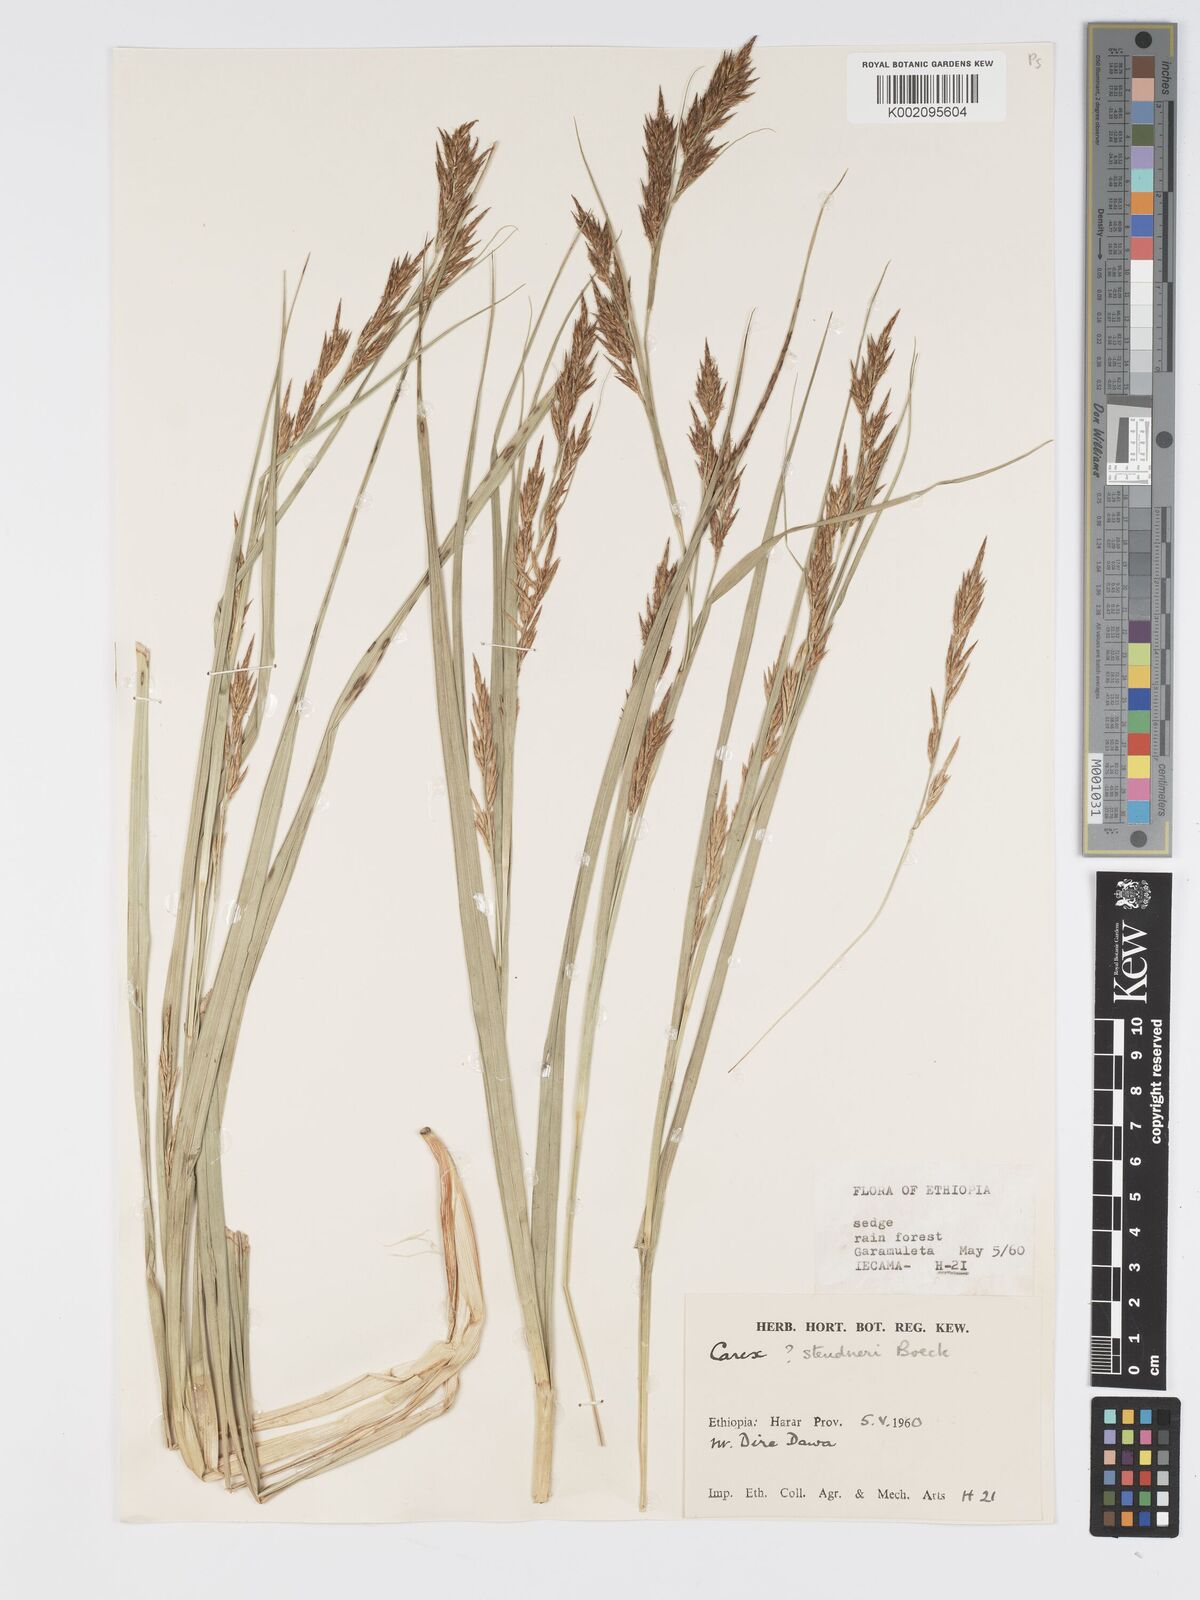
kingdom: Plantae
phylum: Tracheophyta
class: Liliopsida
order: Poales
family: Cyperaceae
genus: Carex
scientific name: Carex steudneri
